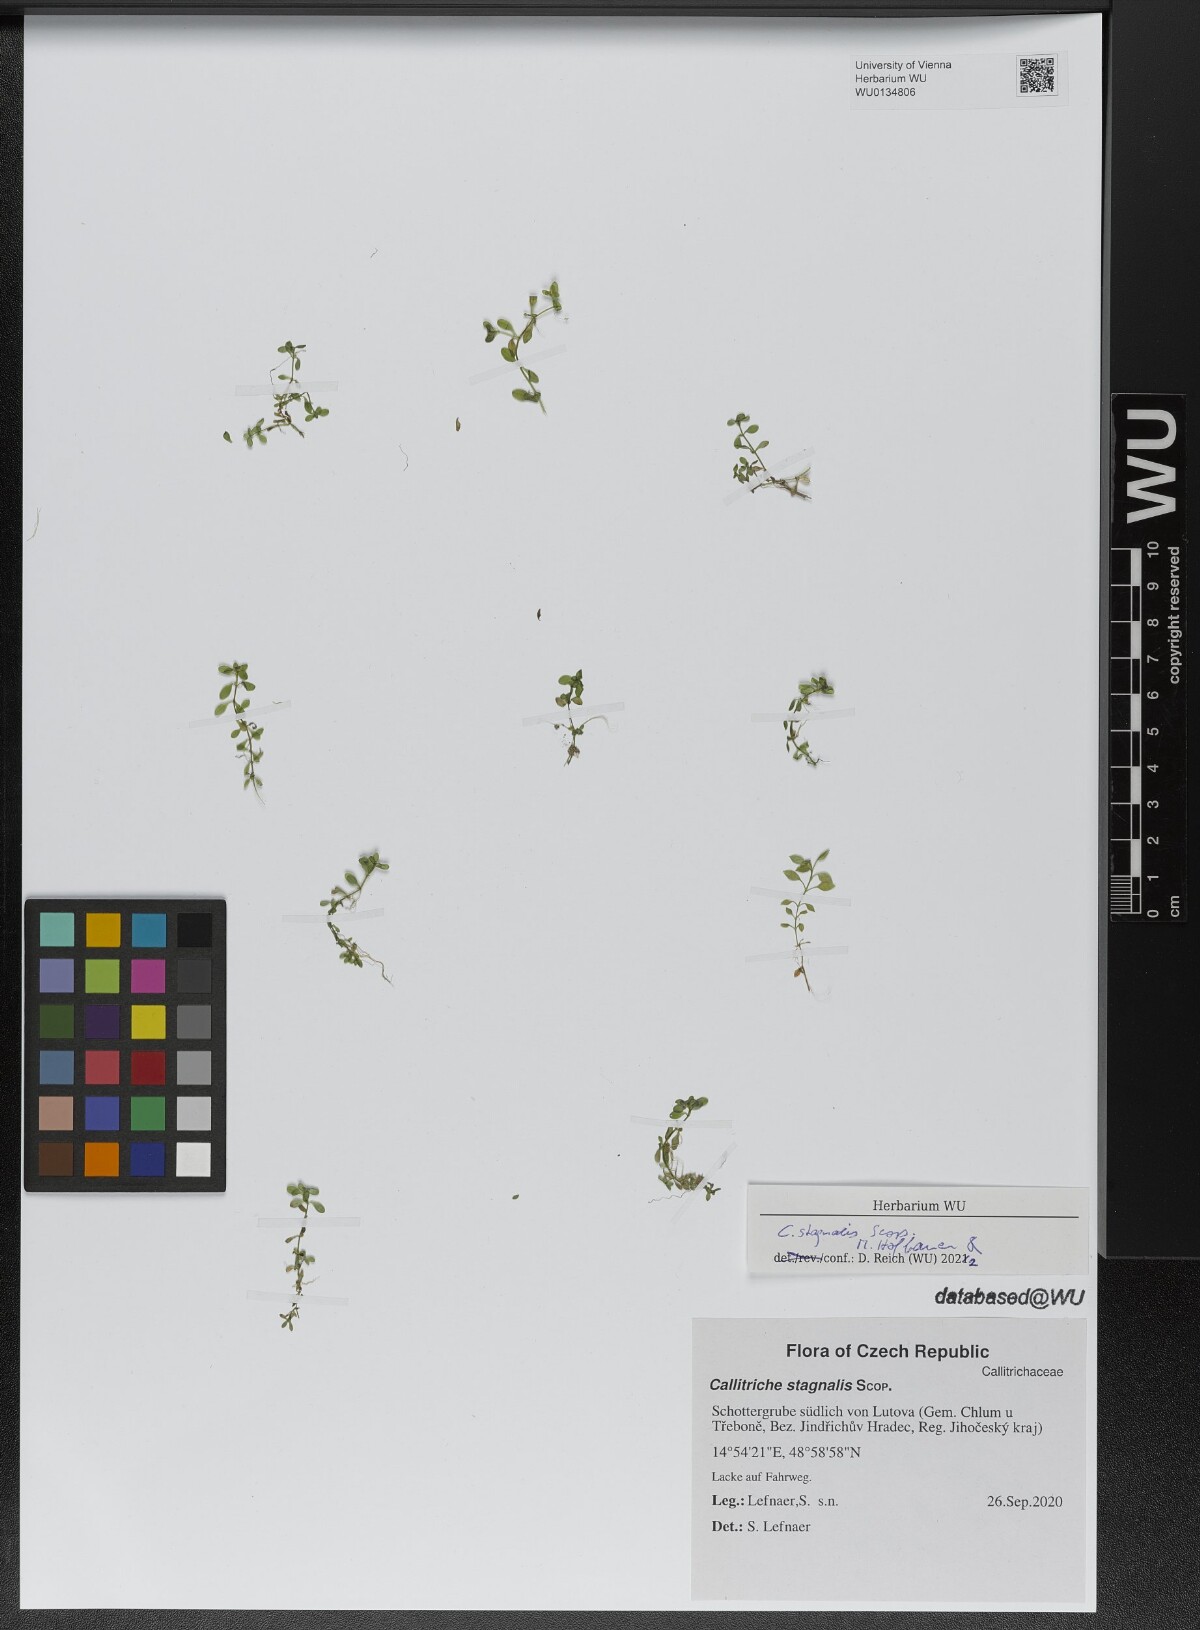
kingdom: Plantae
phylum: Tracheophyta
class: Magnoliopsida
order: Lamiales
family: Plantaginaceae
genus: Callitriche
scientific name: Callitriche stagnalis
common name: Common water-starwort
